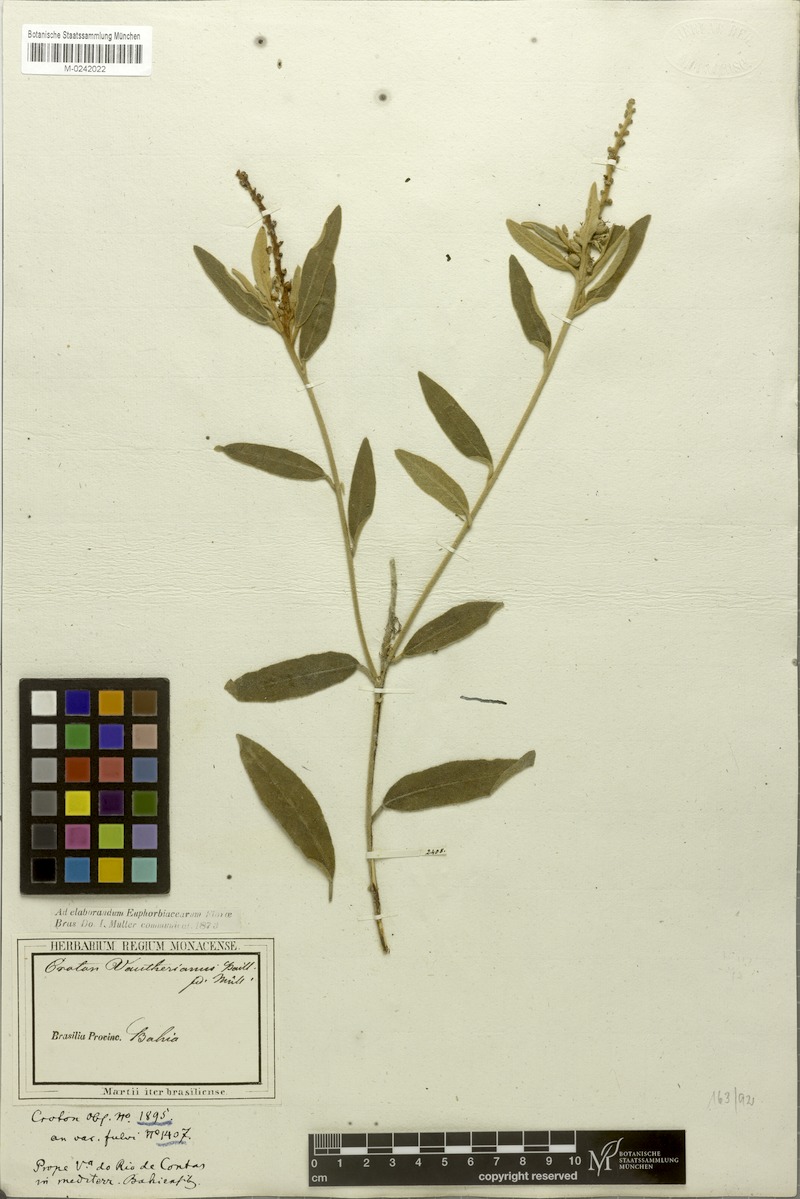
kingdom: Plantae
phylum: Tracheophyta
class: Magnoliopsida
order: Malpighiales
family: Euphorbiaceae
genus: Croton
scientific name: Croton vauthierianus
